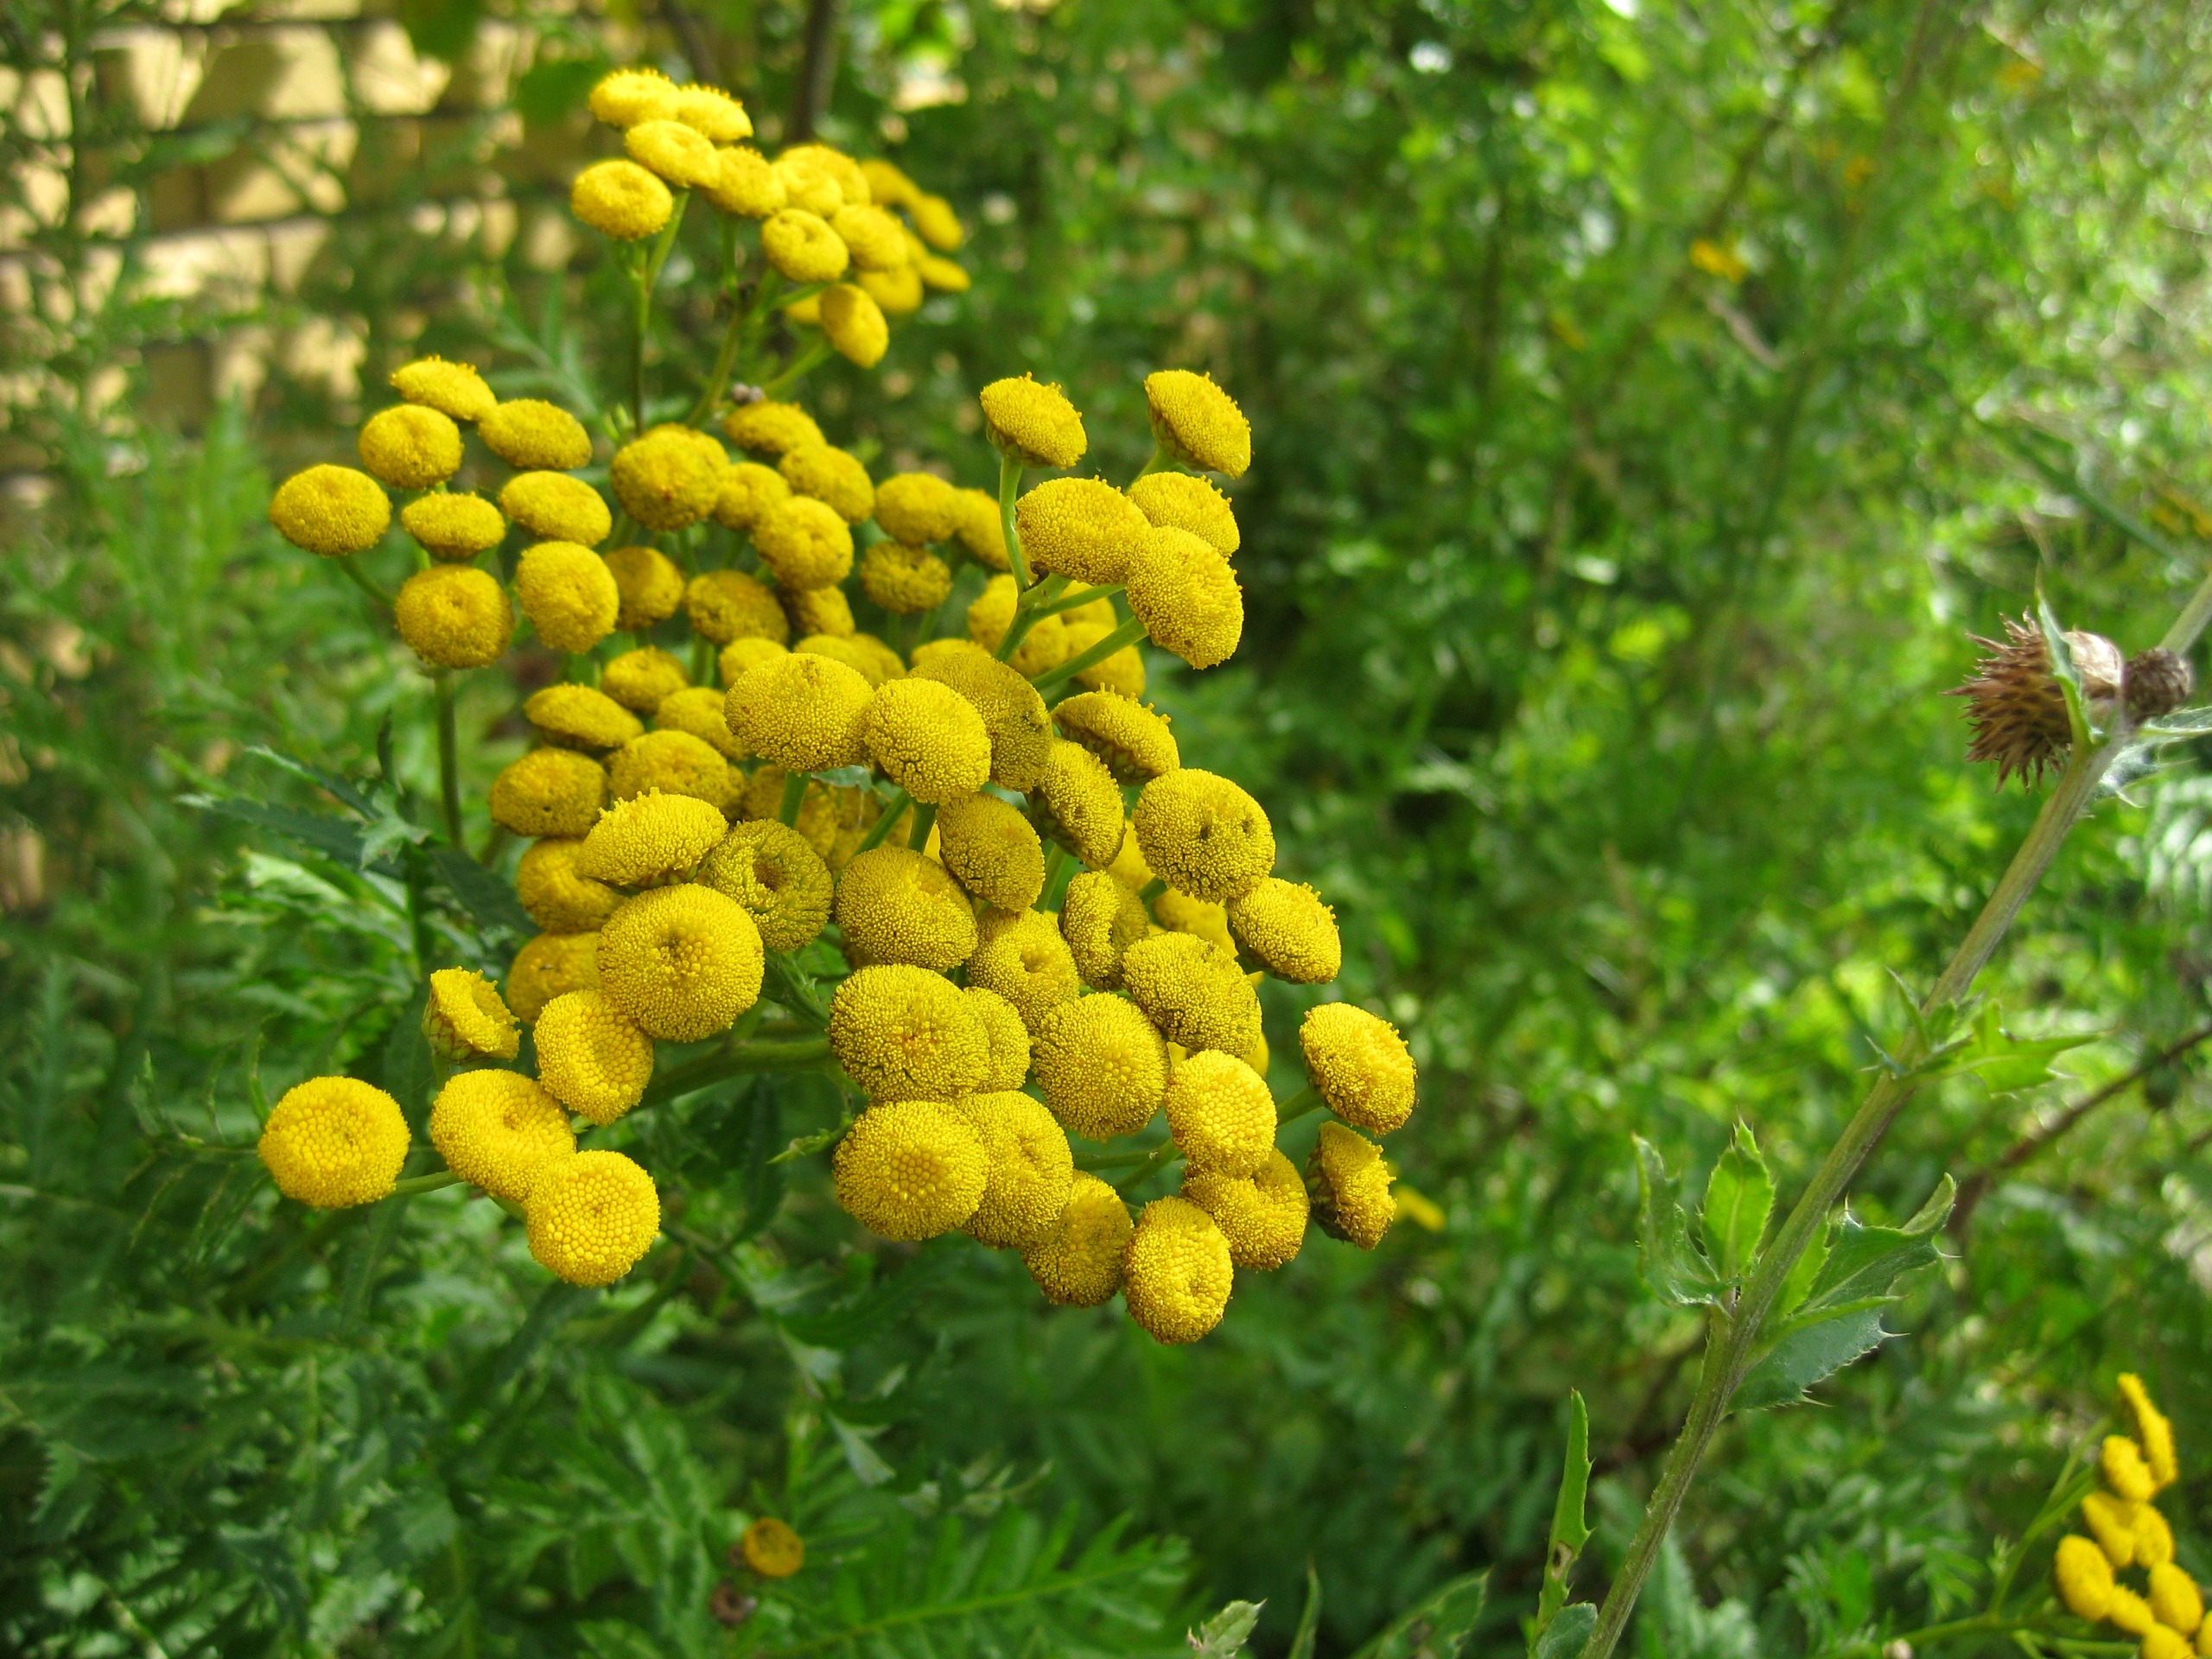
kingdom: Plantae
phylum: Tracheophyta
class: Magnoliopsida
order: Asterales
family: Asteraceae
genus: Tanacetum
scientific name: Tanacetum vulgare
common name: Rejnfan
